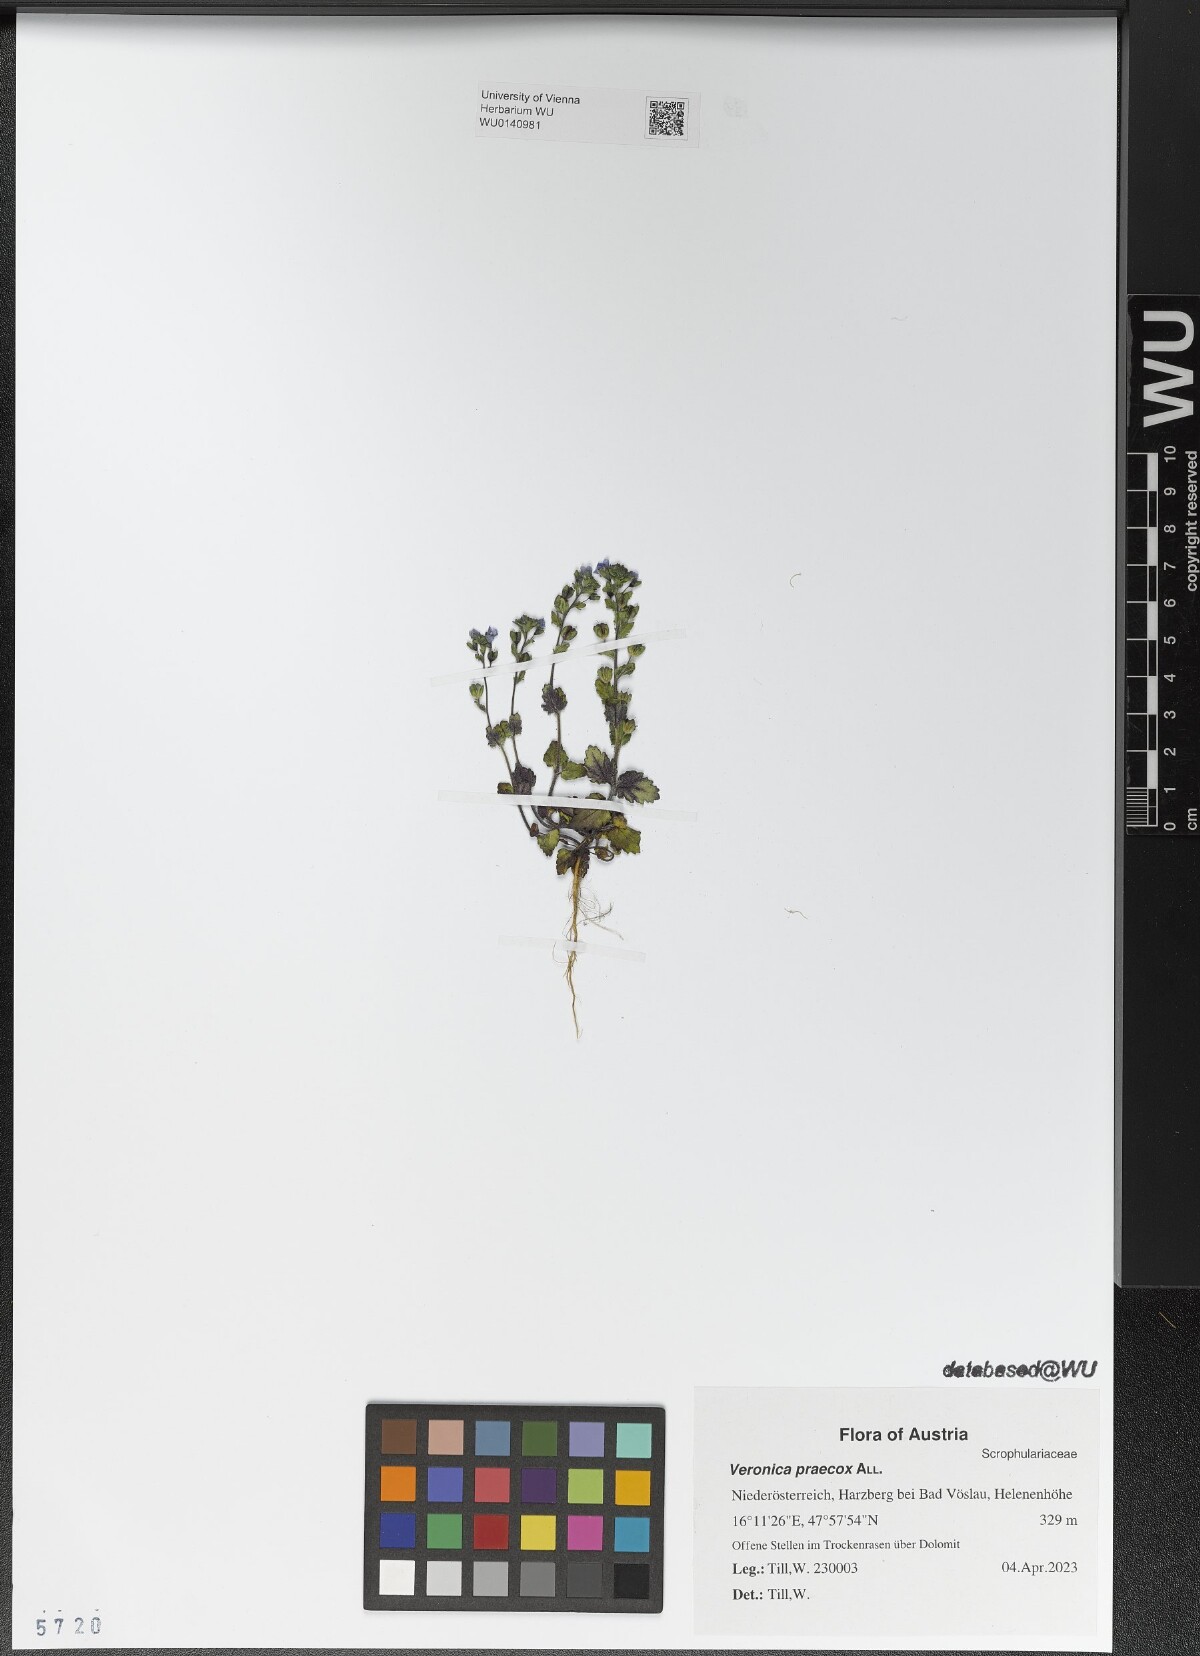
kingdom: Plantae
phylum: Tracheophyta
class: Magnoliopsida
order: Lamiales
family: Plantaginaceae
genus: Veronica
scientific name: Veronica praecox
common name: Breckland speedwell
